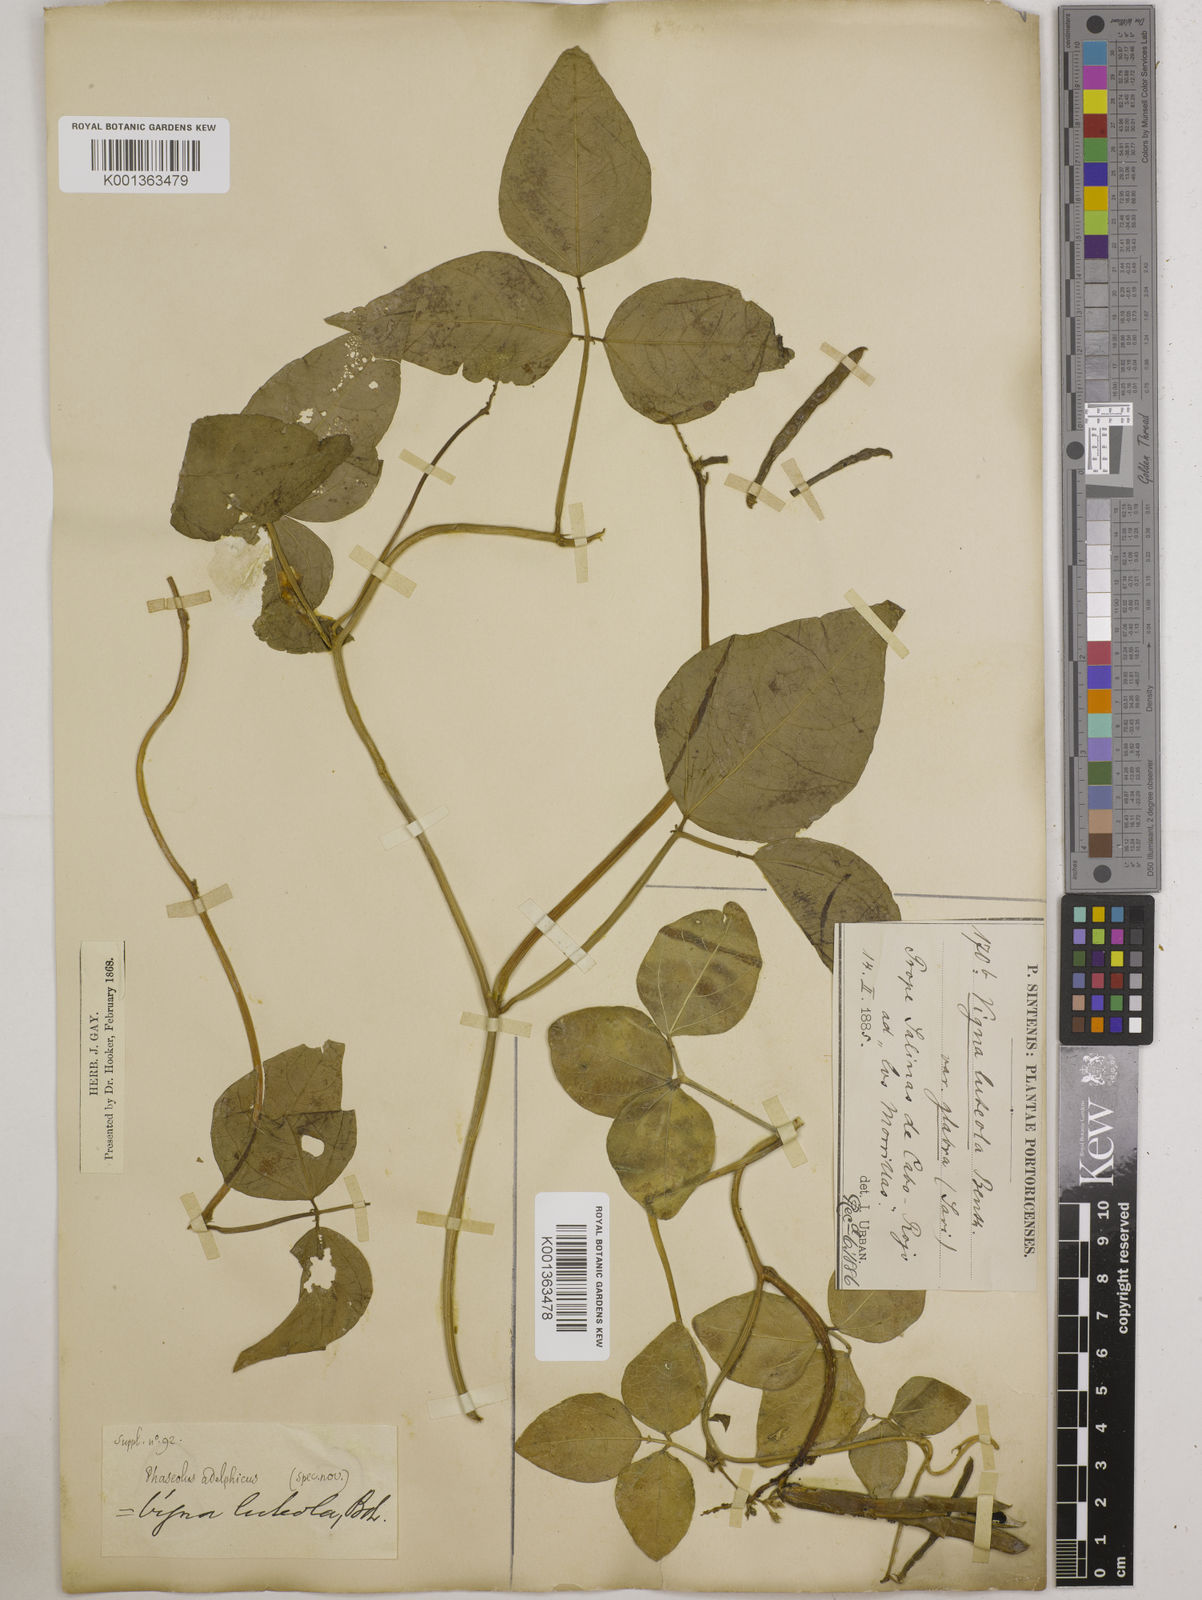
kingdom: Plantae
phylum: Tracheophyta
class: Magnoliopsida
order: Fabales
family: Fabaceae
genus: Vigna
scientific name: Vigna luteola
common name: Hairypod cowpea
